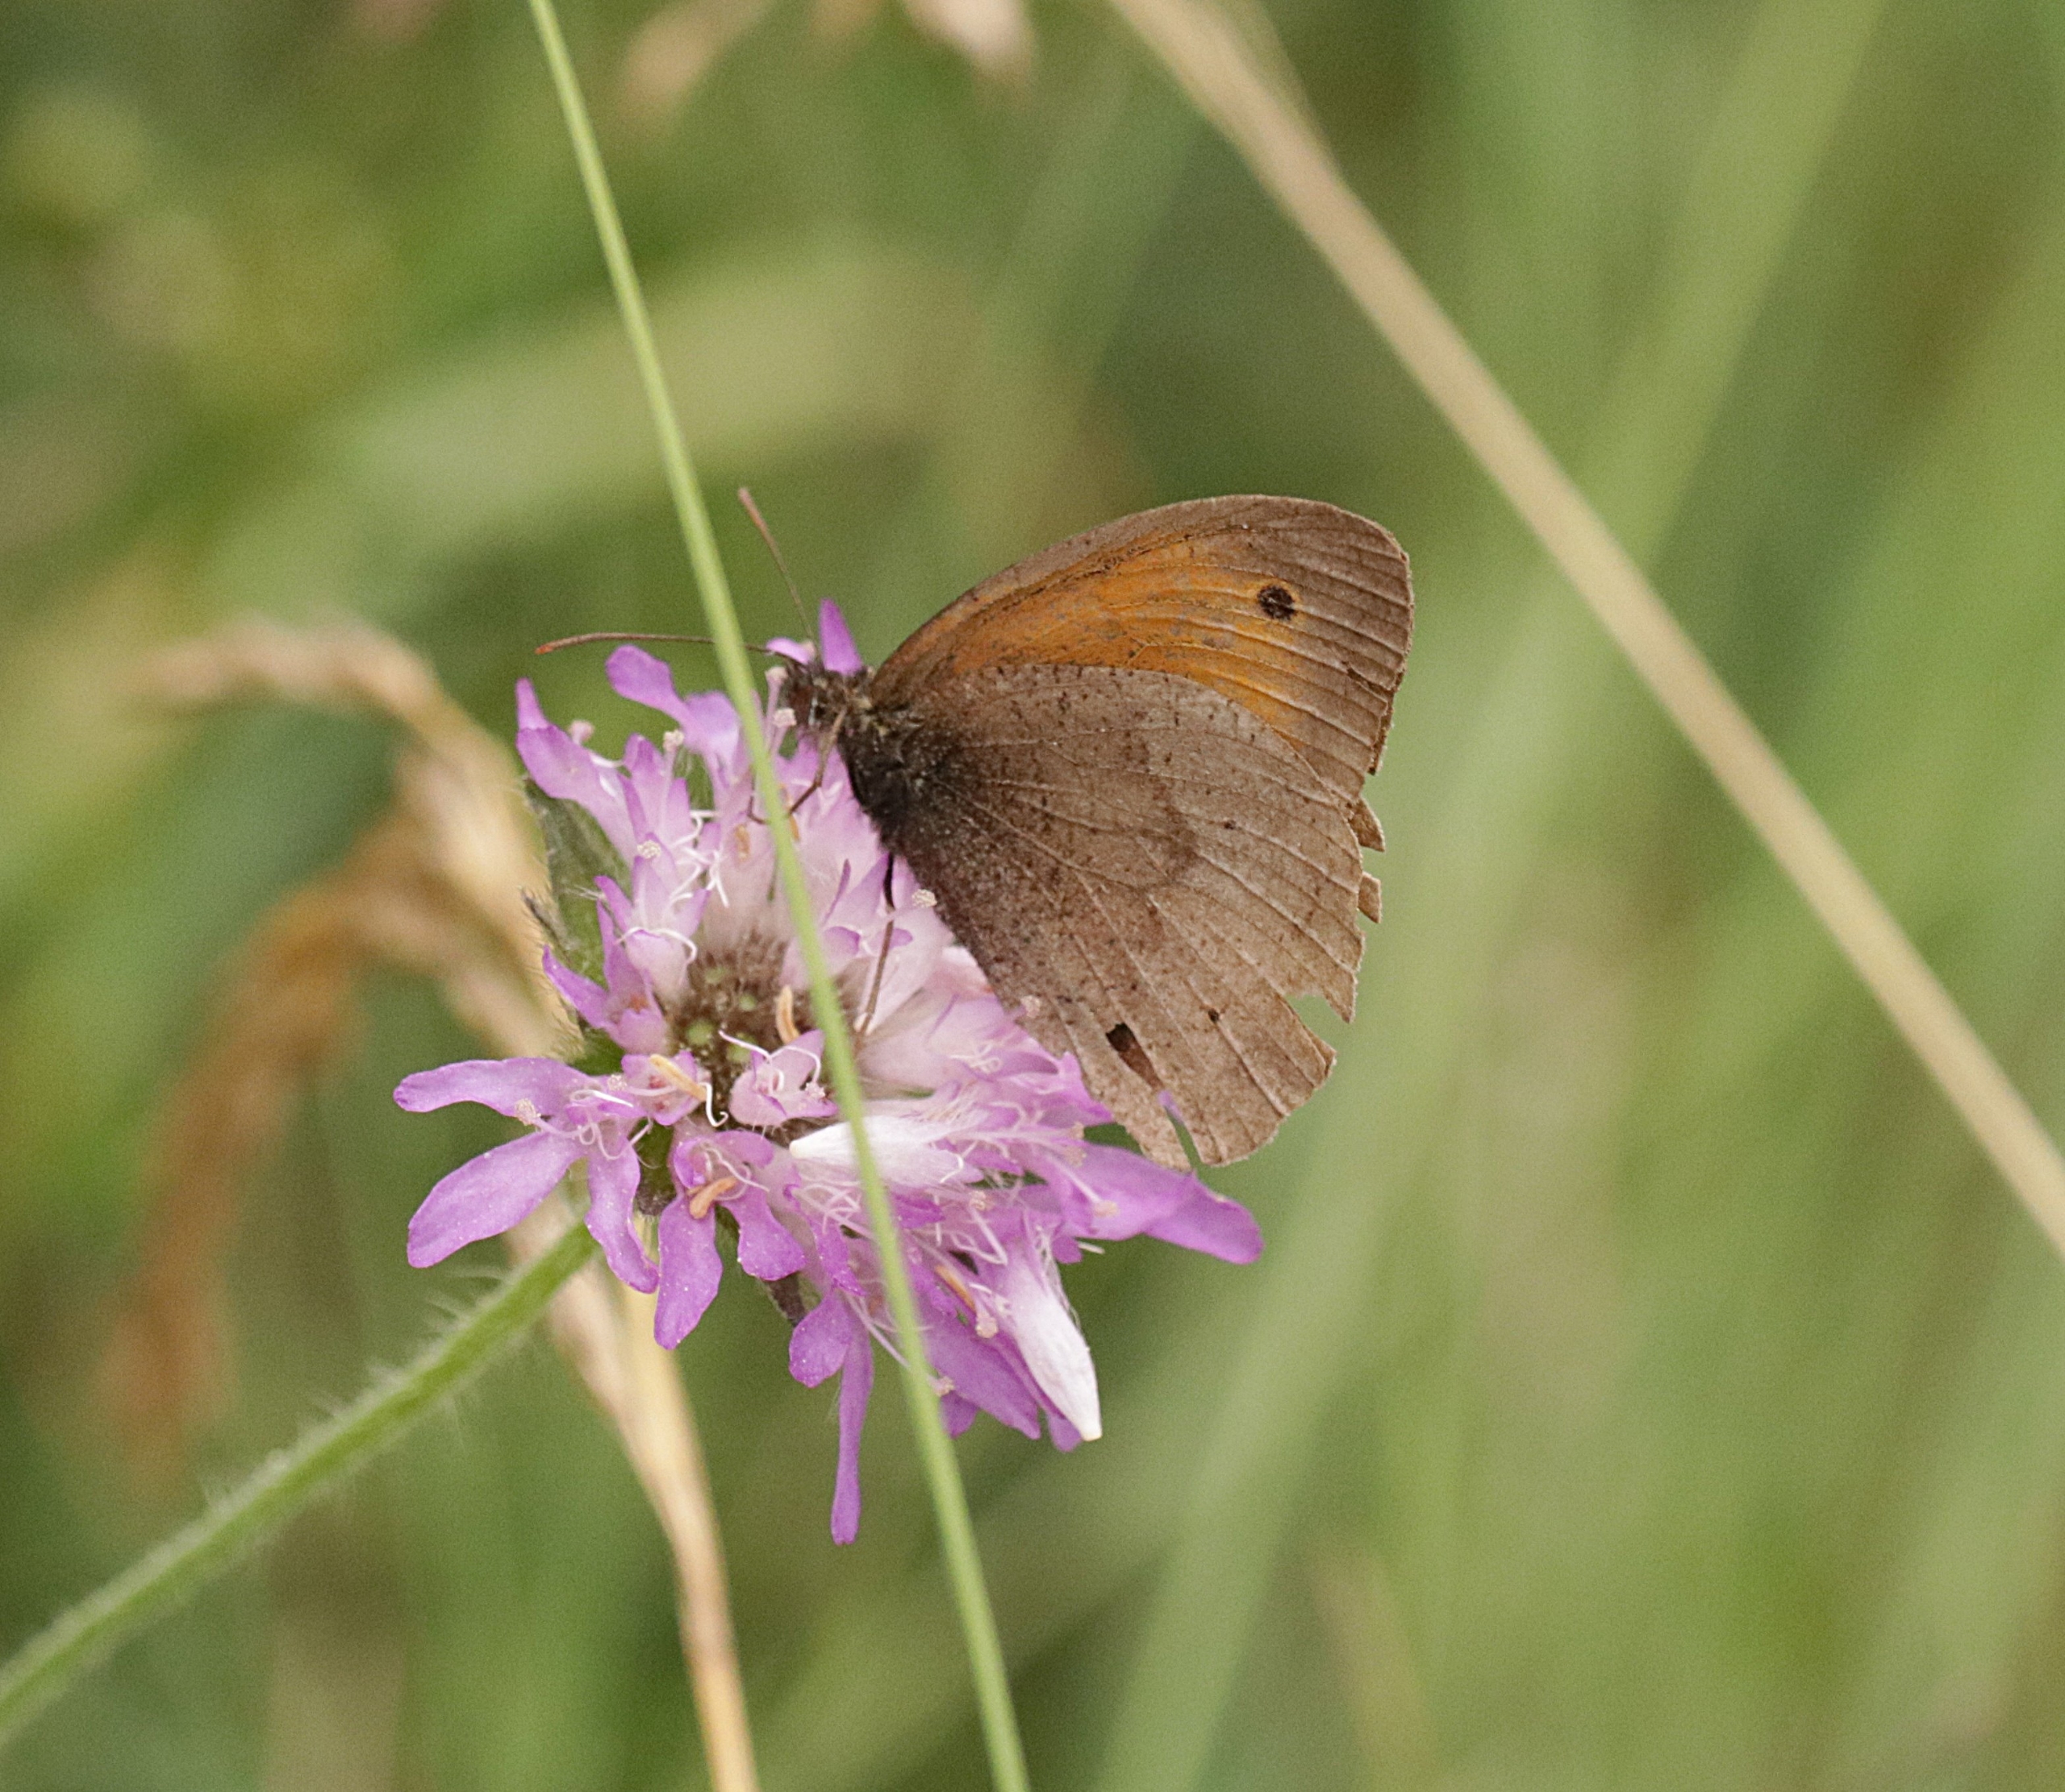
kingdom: Animalia
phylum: Arthropoda
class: Insecta
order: Lepidoptera
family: Nymphalidae
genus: Maniola
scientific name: Maniola jurtina
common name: Græsrandøje
